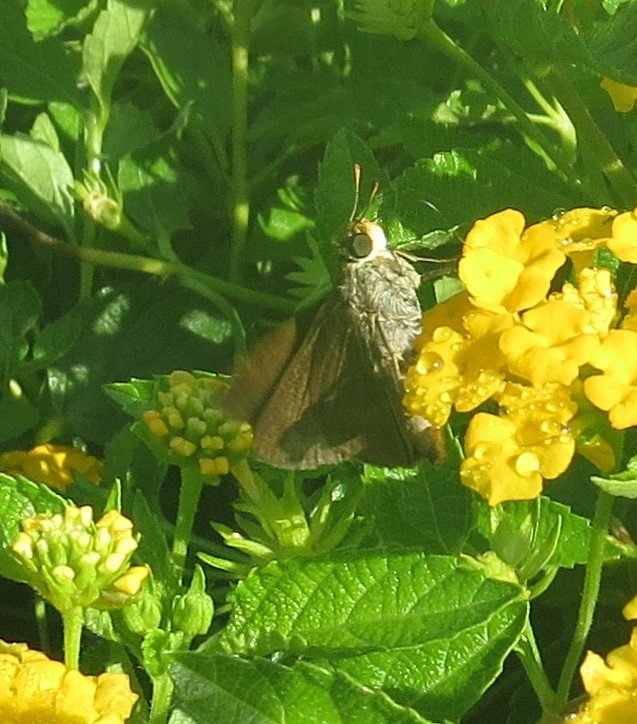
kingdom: Animalia
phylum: Arthropoda
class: Insecta
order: Lepidoptera
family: Hesperiidae
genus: Euphyes
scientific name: Euphyes vestris
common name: Dun Skipper
